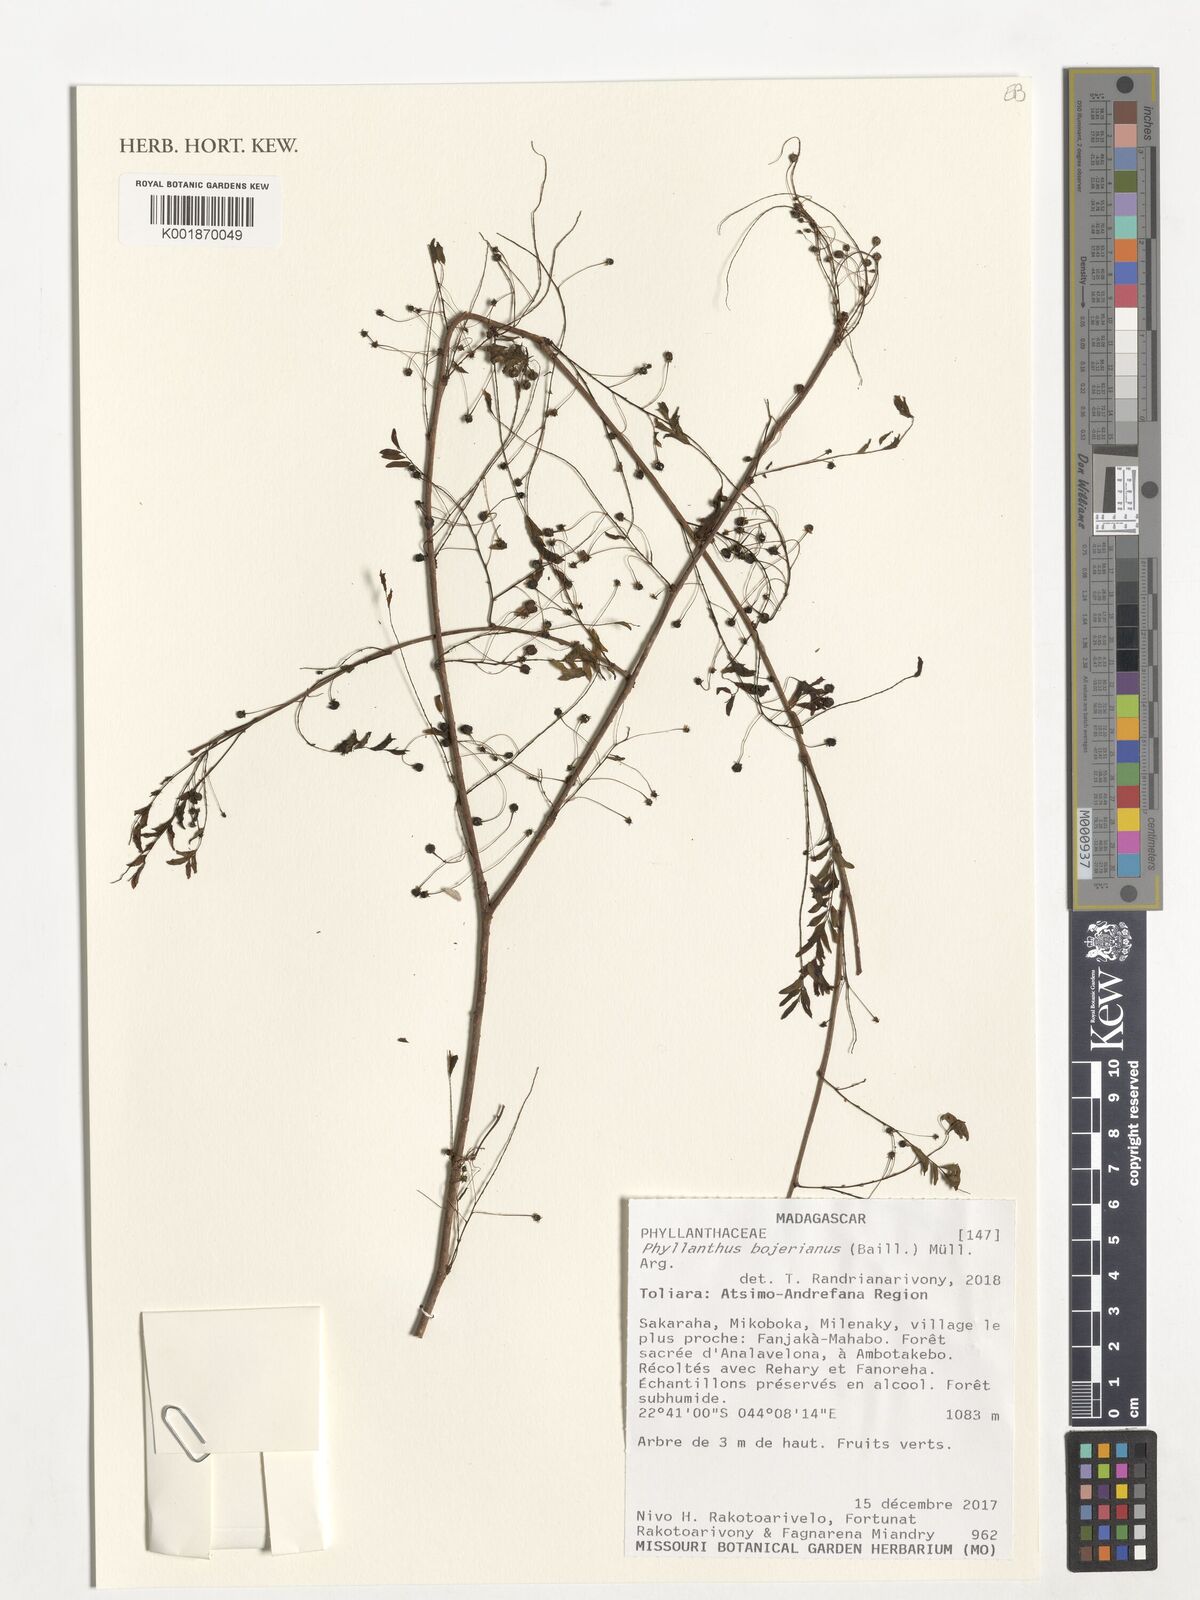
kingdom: Plantae
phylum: Tracheophyta
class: Magnoliopsida
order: Malpighiales
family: Phyllanthaceae
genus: Phyllanthus
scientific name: Phyllanthus bojerianus
